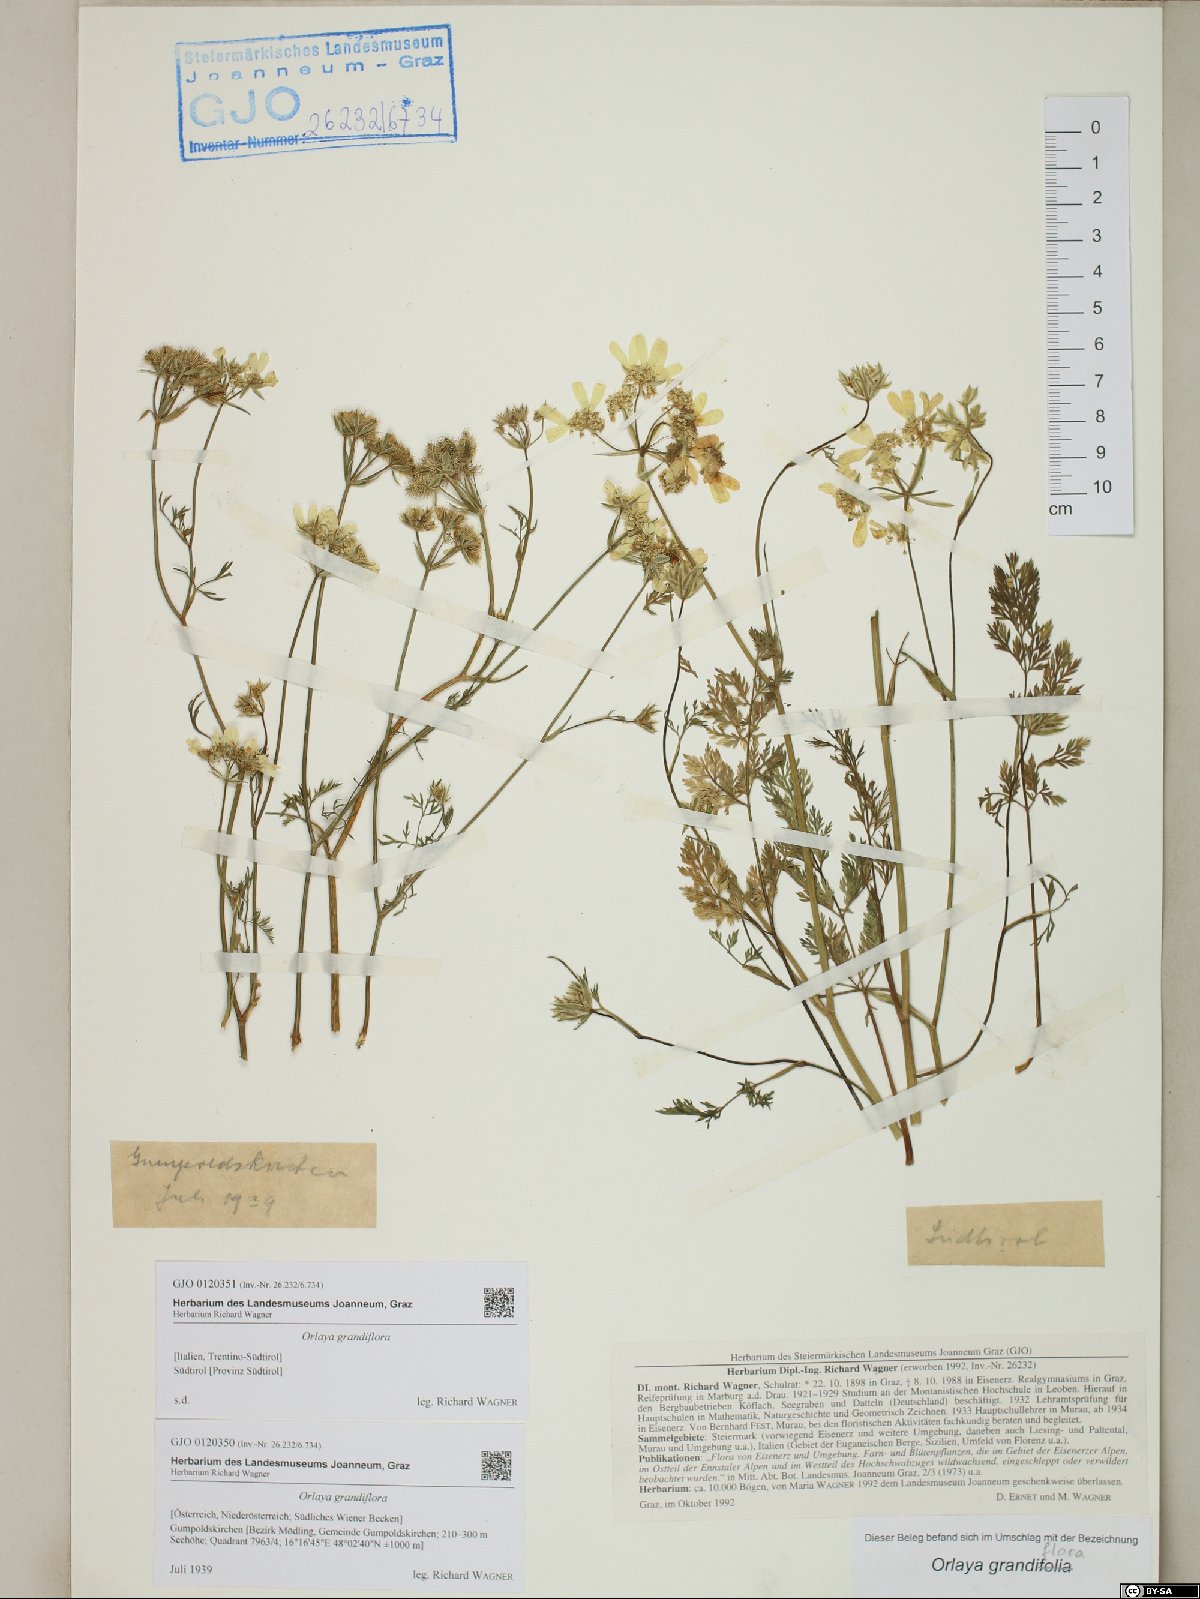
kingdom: Plantae
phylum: Tracheophyta
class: Magnoliopsida
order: Apiales
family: Apiaceae
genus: Orlaya
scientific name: Orlaya grandiflora
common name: White lace flower
